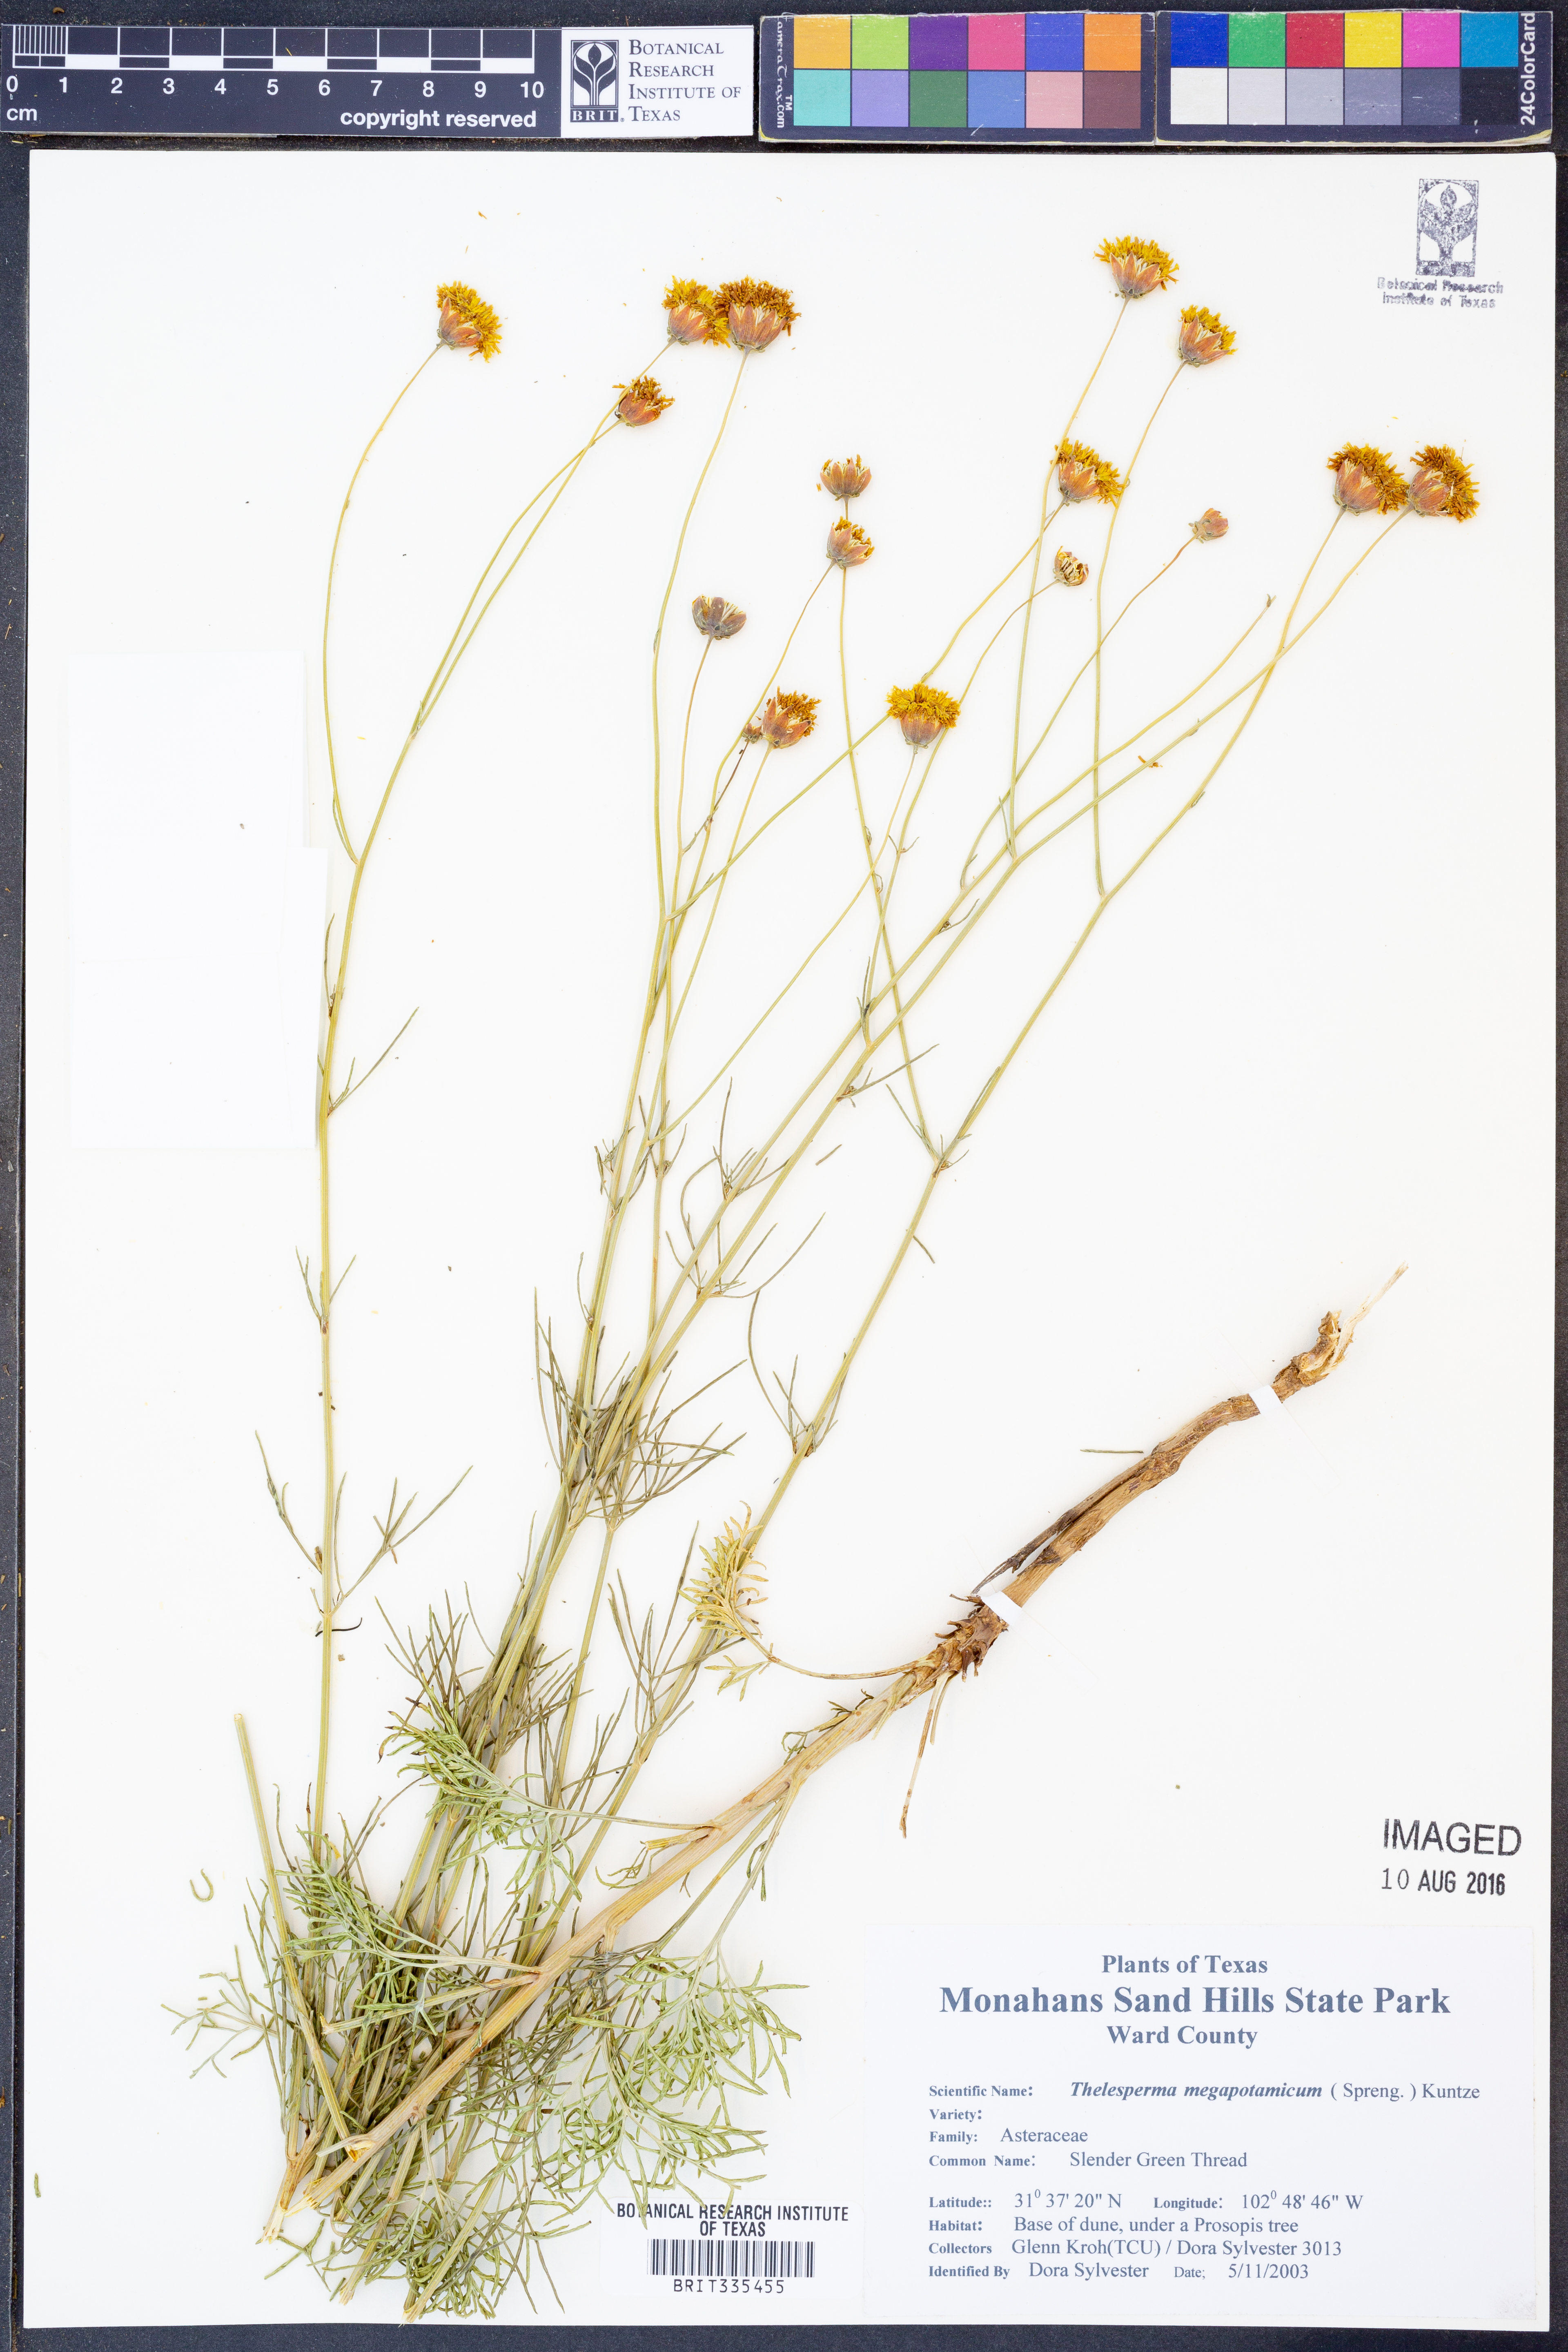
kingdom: Plantae
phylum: Tracheophyta
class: Magnoliopsida
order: Asterales
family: Asteraceae
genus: Thelesperma
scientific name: Thelesperma megapotamicum
